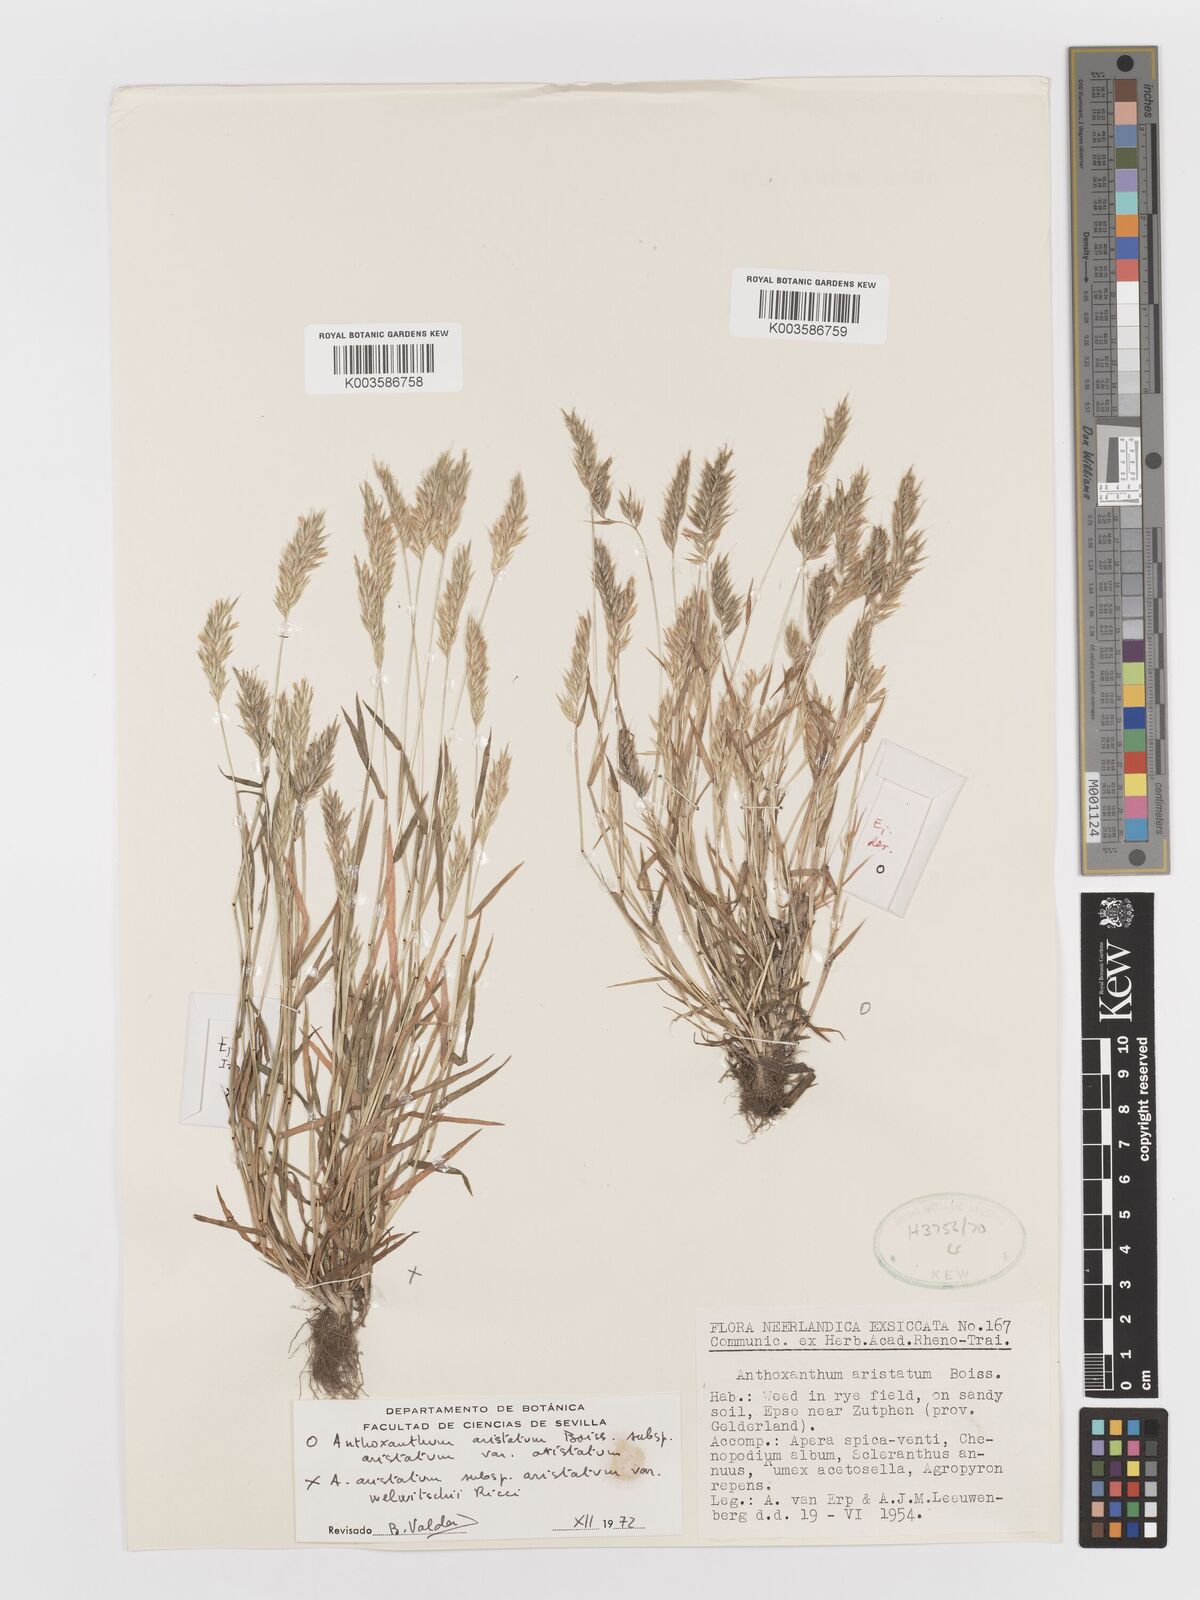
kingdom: Plantae
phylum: Tracheophyta
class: Liliopsida
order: Poales
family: Poaceae
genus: Anthoxanthum
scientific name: Anthoxanthum aristatum
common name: Annual vernal-grass
